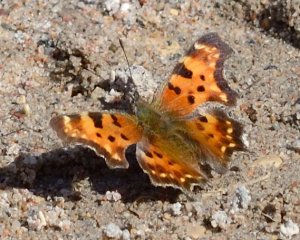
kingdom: Animalia
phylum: Arthropoda
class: Insecta
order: Lepidoptera
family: Nymphalidae
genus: Polygonia
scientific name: Polygonia comma
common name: Eastern Comma
